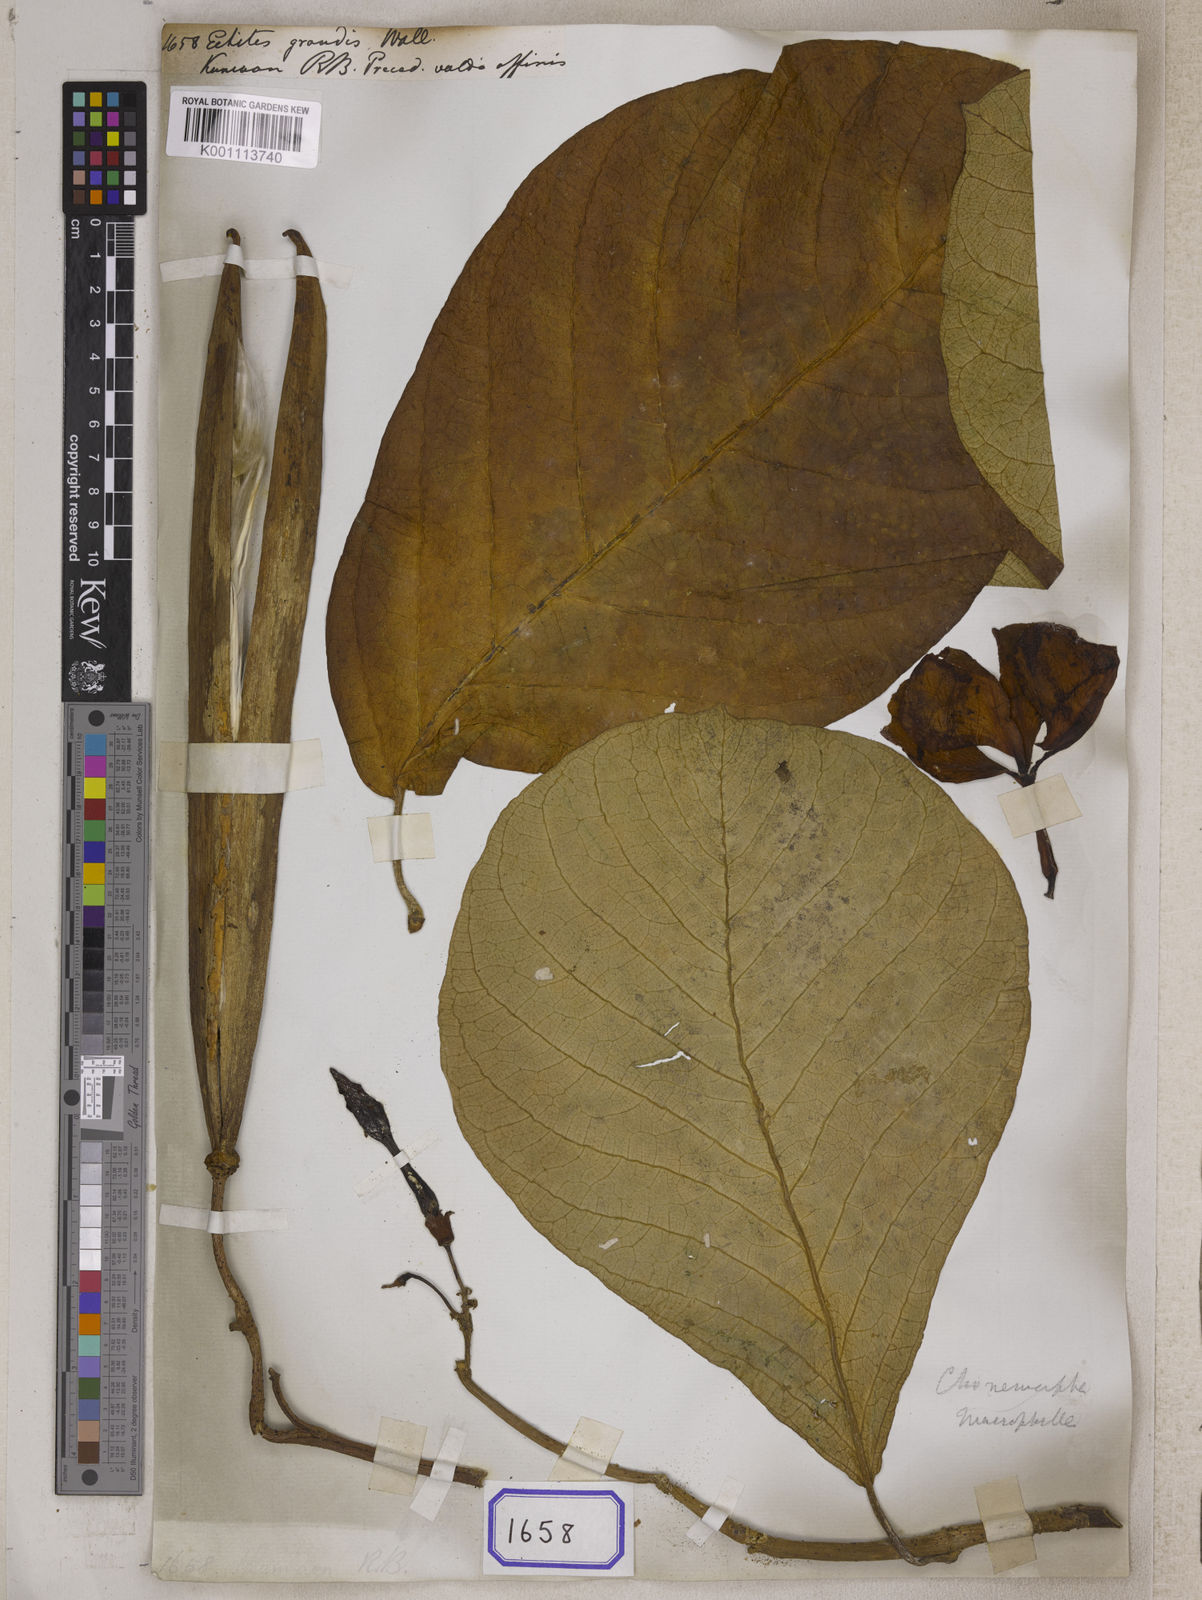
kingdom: Plantae
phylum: Tracheophyta
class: Magnoliopsida
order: Gentianales
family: Apocynaceae
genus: Chonemorpha
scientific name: Chonemorpha fragrans
